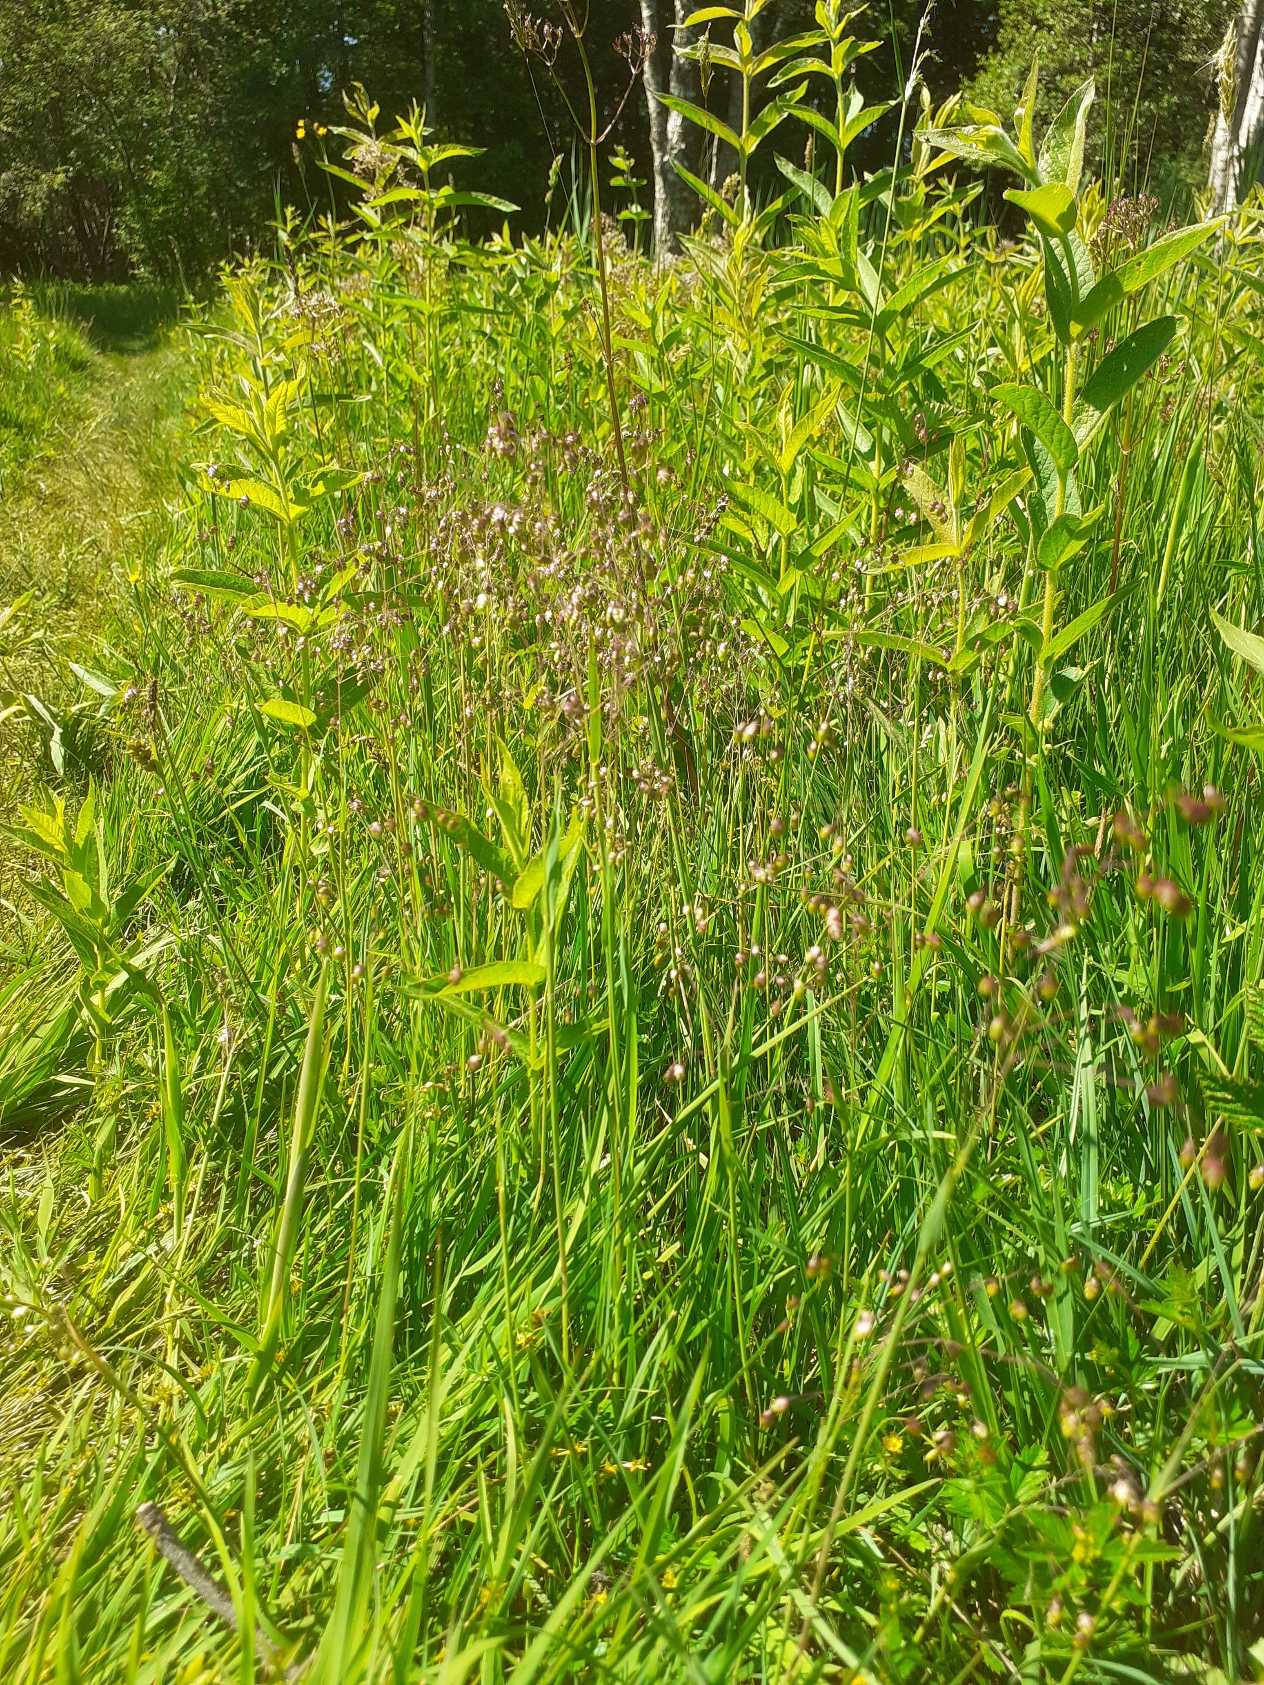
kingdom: Plantae
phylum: Tracheophyta
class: Liliopsida
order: Poales
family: Poaceae
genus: Briza
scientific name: Briza media
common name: Hjertegræs
